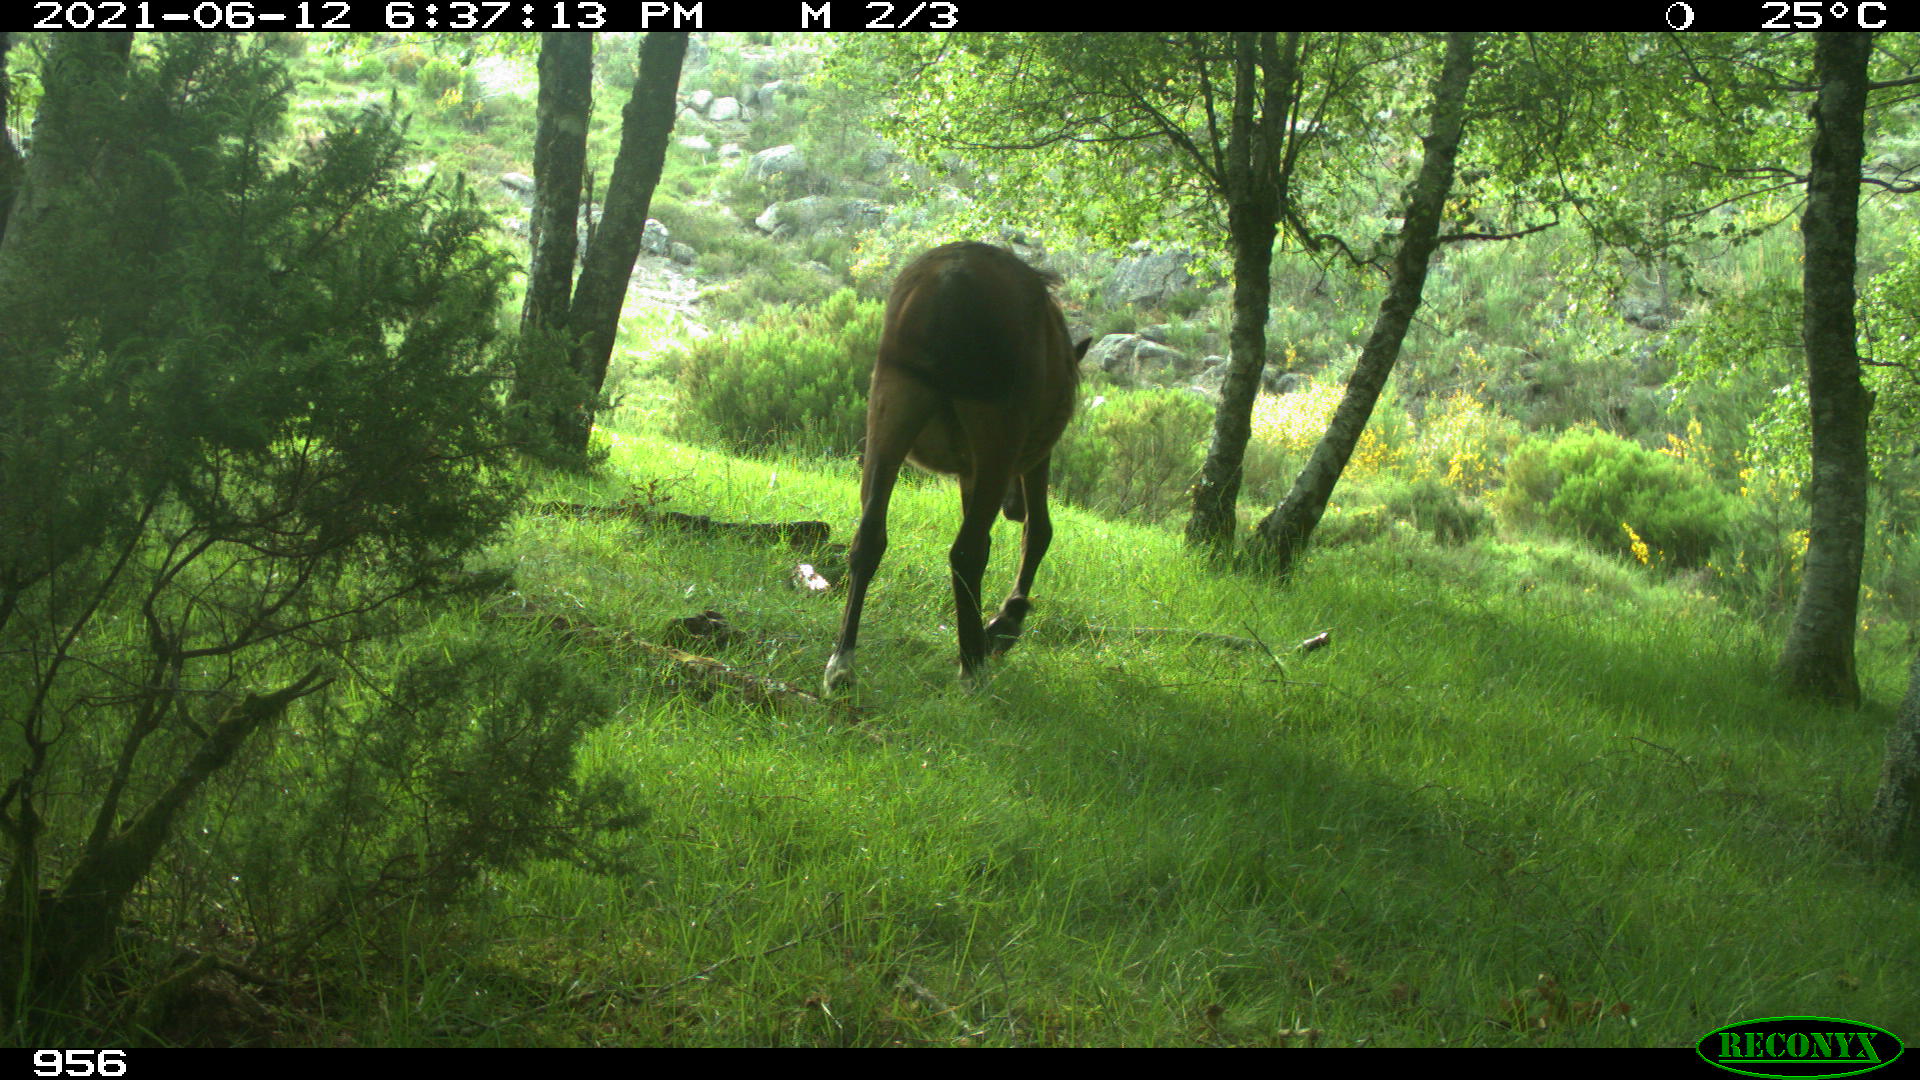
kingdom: Animalia
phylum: Chordata
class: Mammalia
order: Perissodactyla
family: Equidae
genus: Equus
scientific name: Equus caballus
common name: Horse
